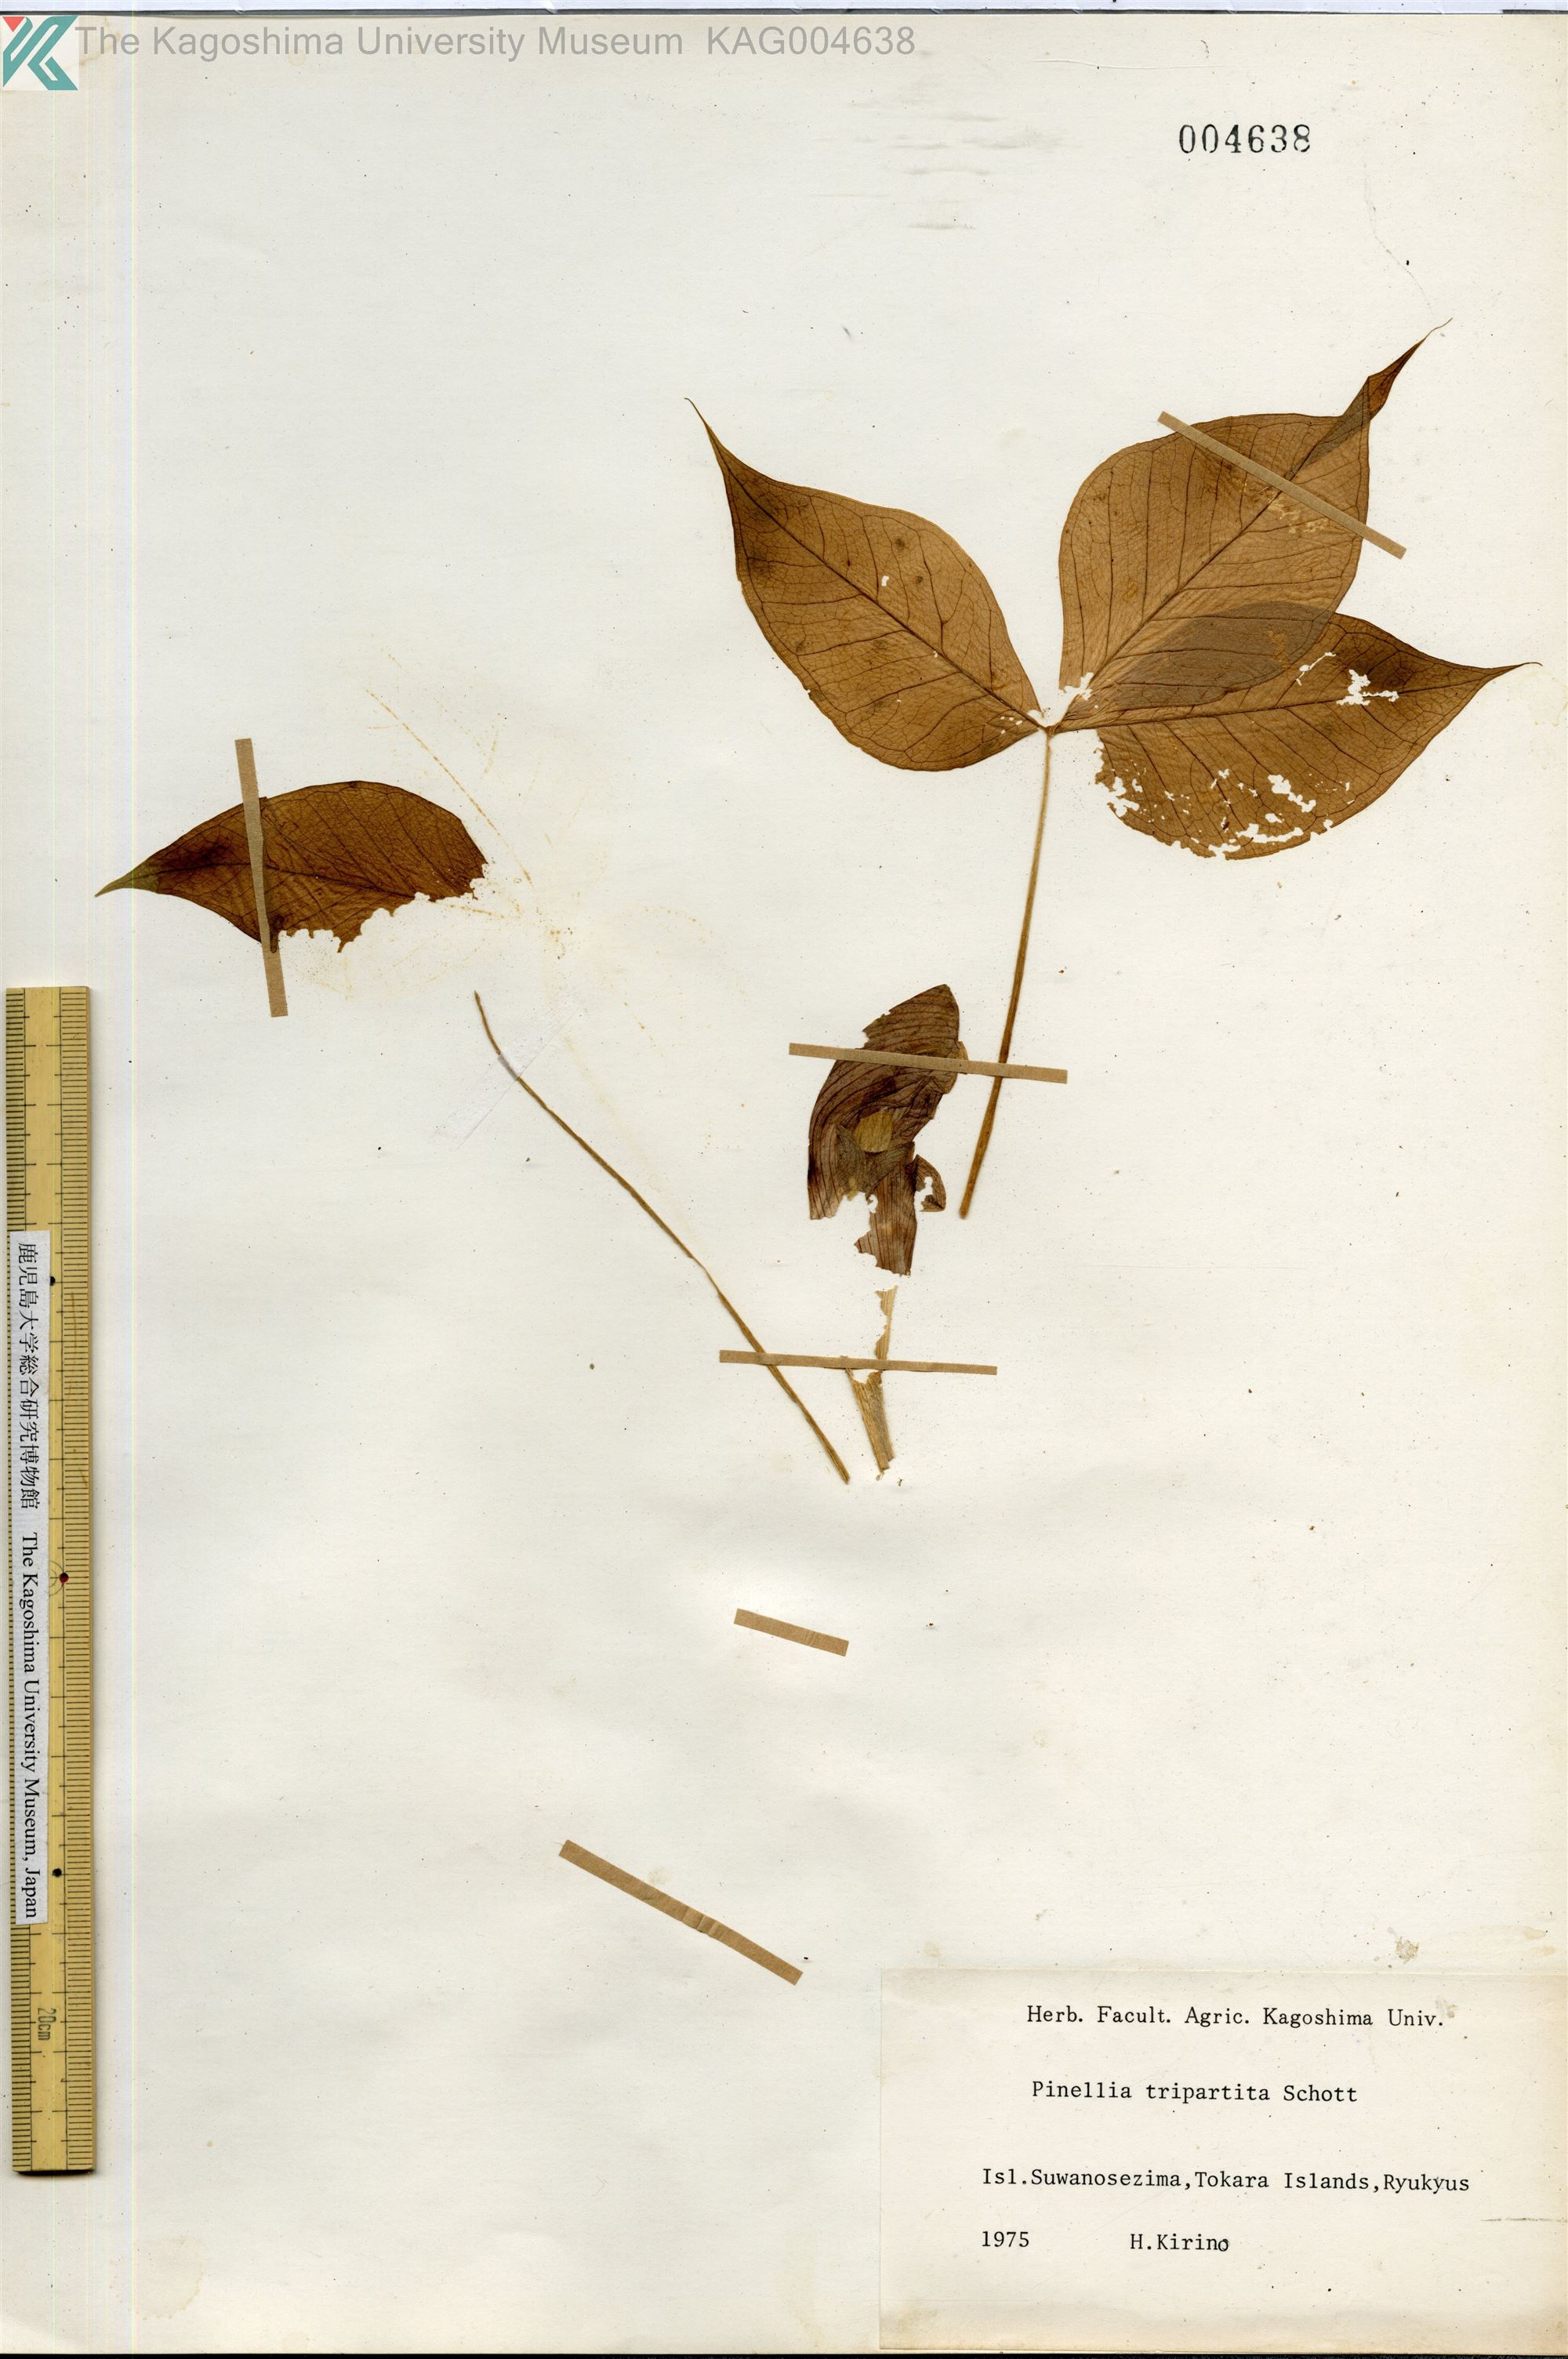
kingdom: Plantae
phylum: Tracheophyta
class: Liliopsida
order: Alismatales
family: Araceae
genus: Pinellia
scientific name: Pinellia tripartita
